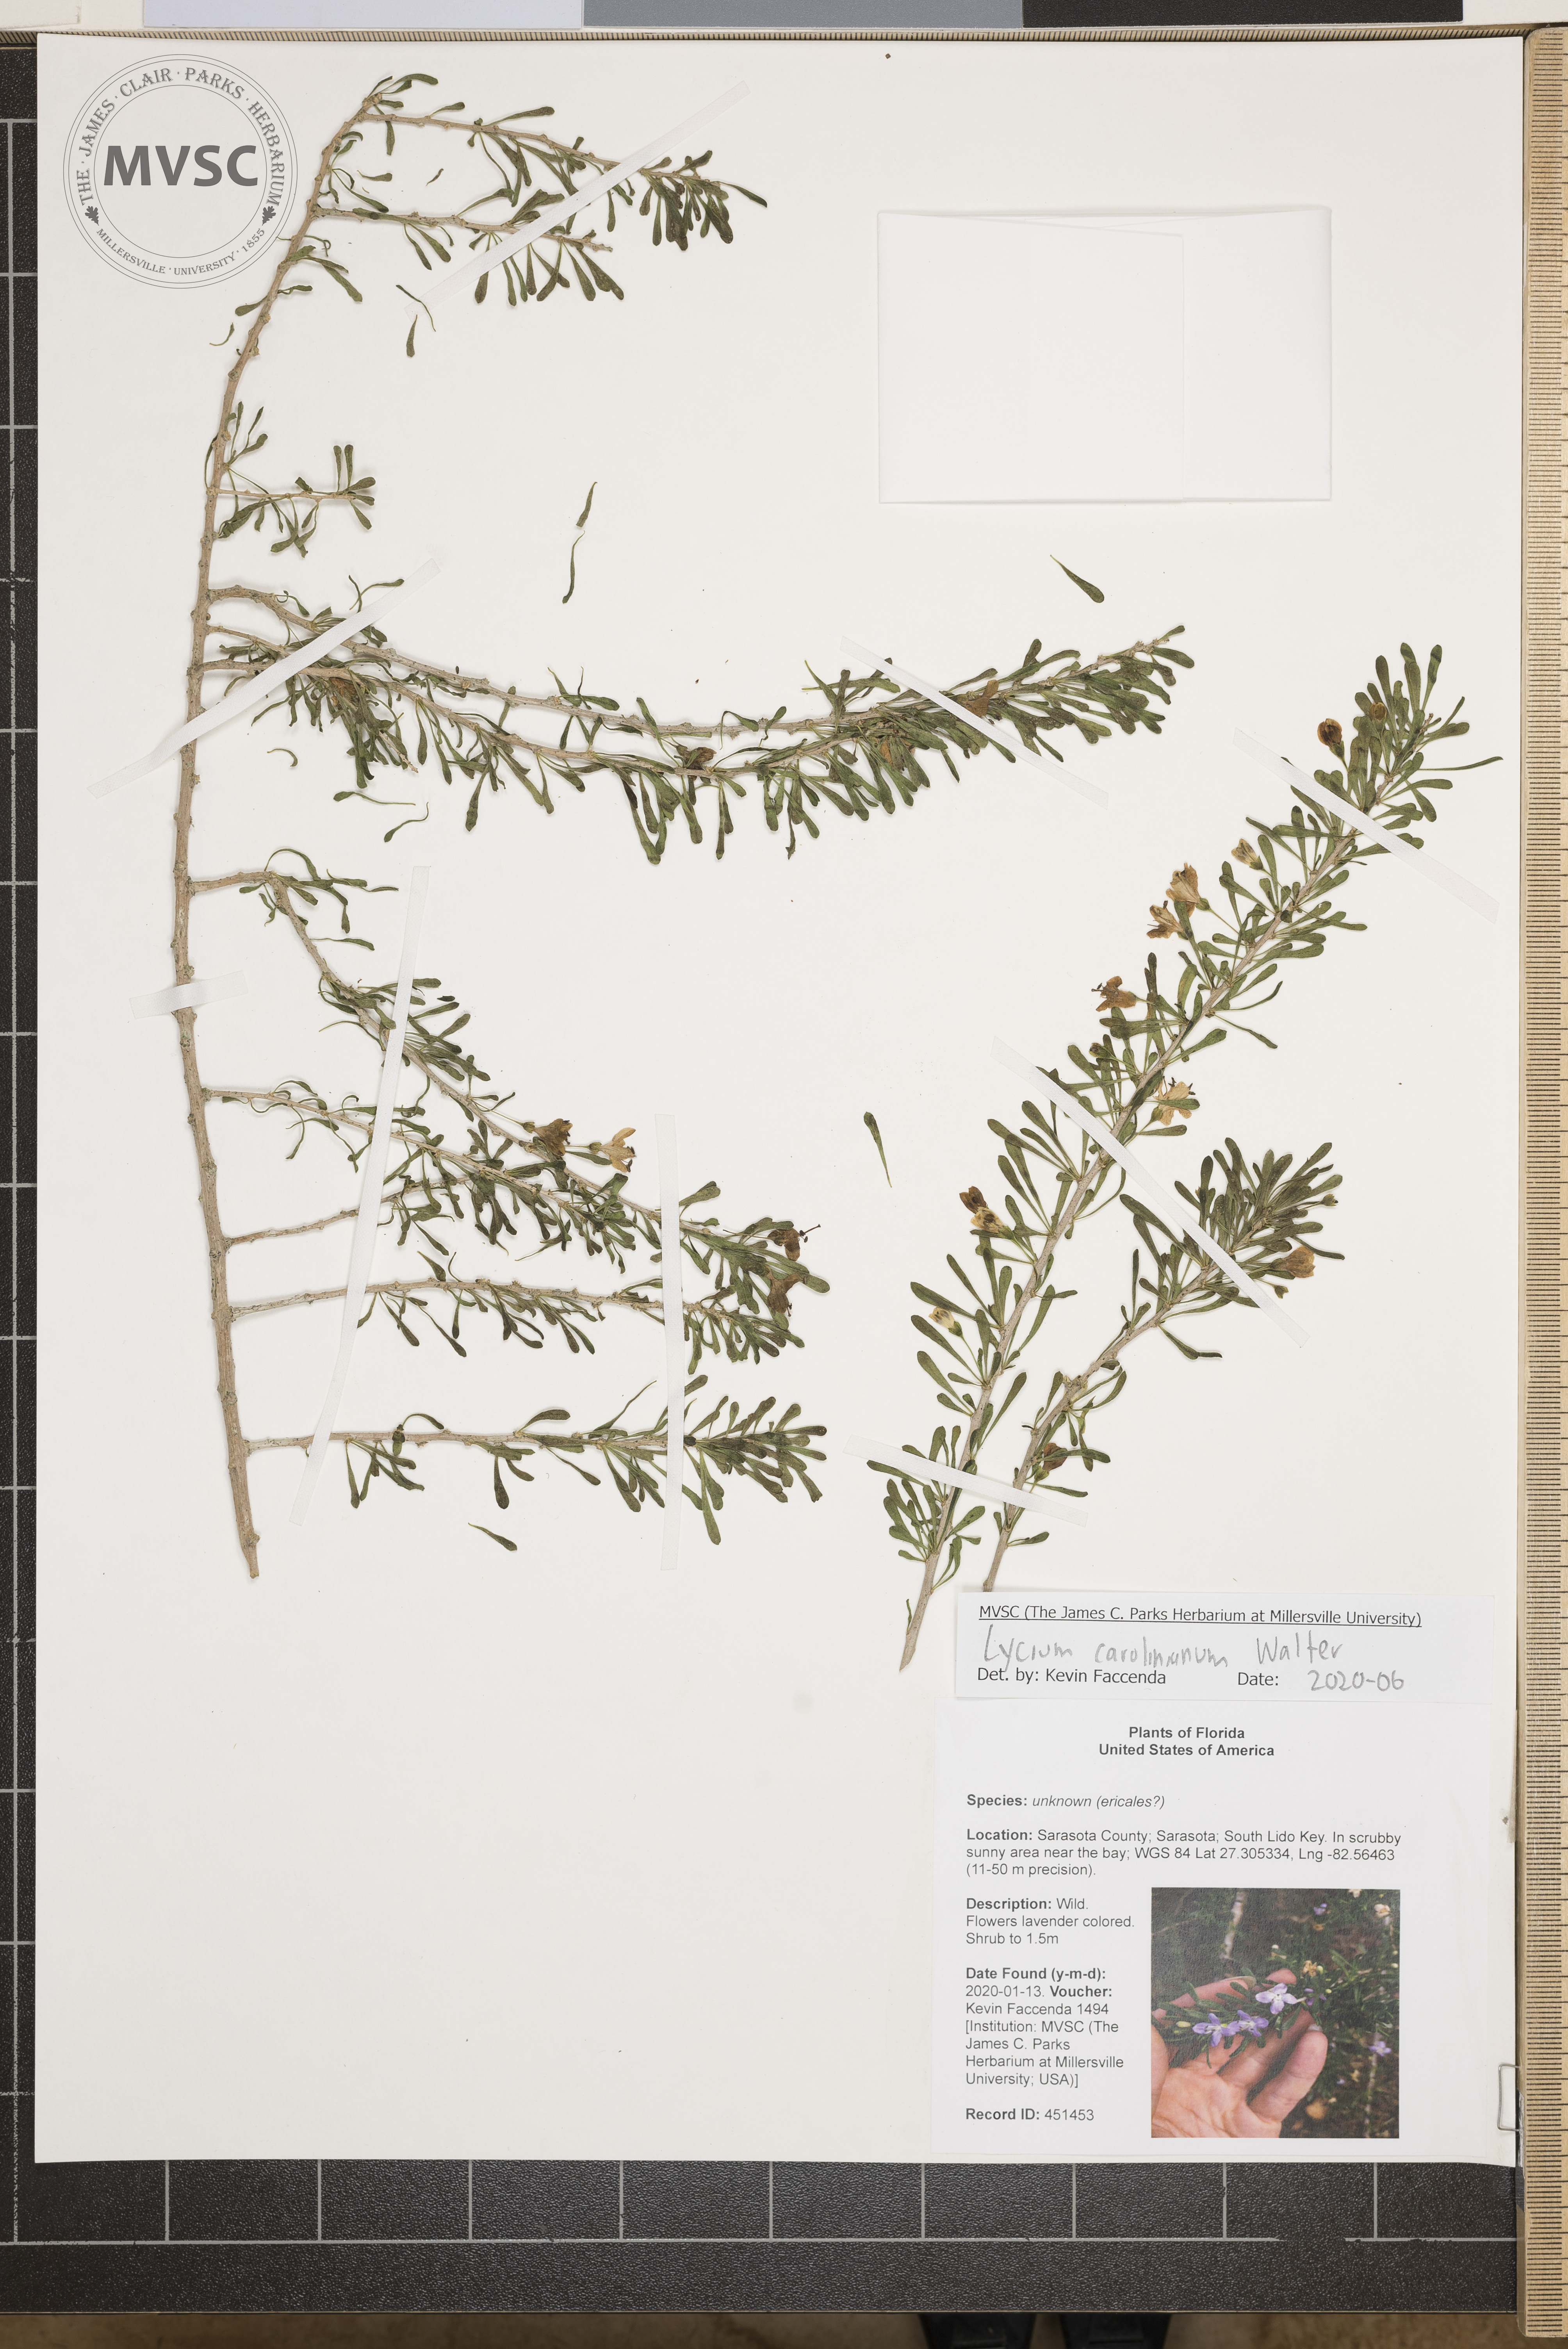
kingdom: Plantae
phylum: Tracheophyta
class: Magnoliopsida
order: Solanales
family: Solanaceae
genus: Lycium
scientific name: Lycium carolinianum
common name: Christmasberry
